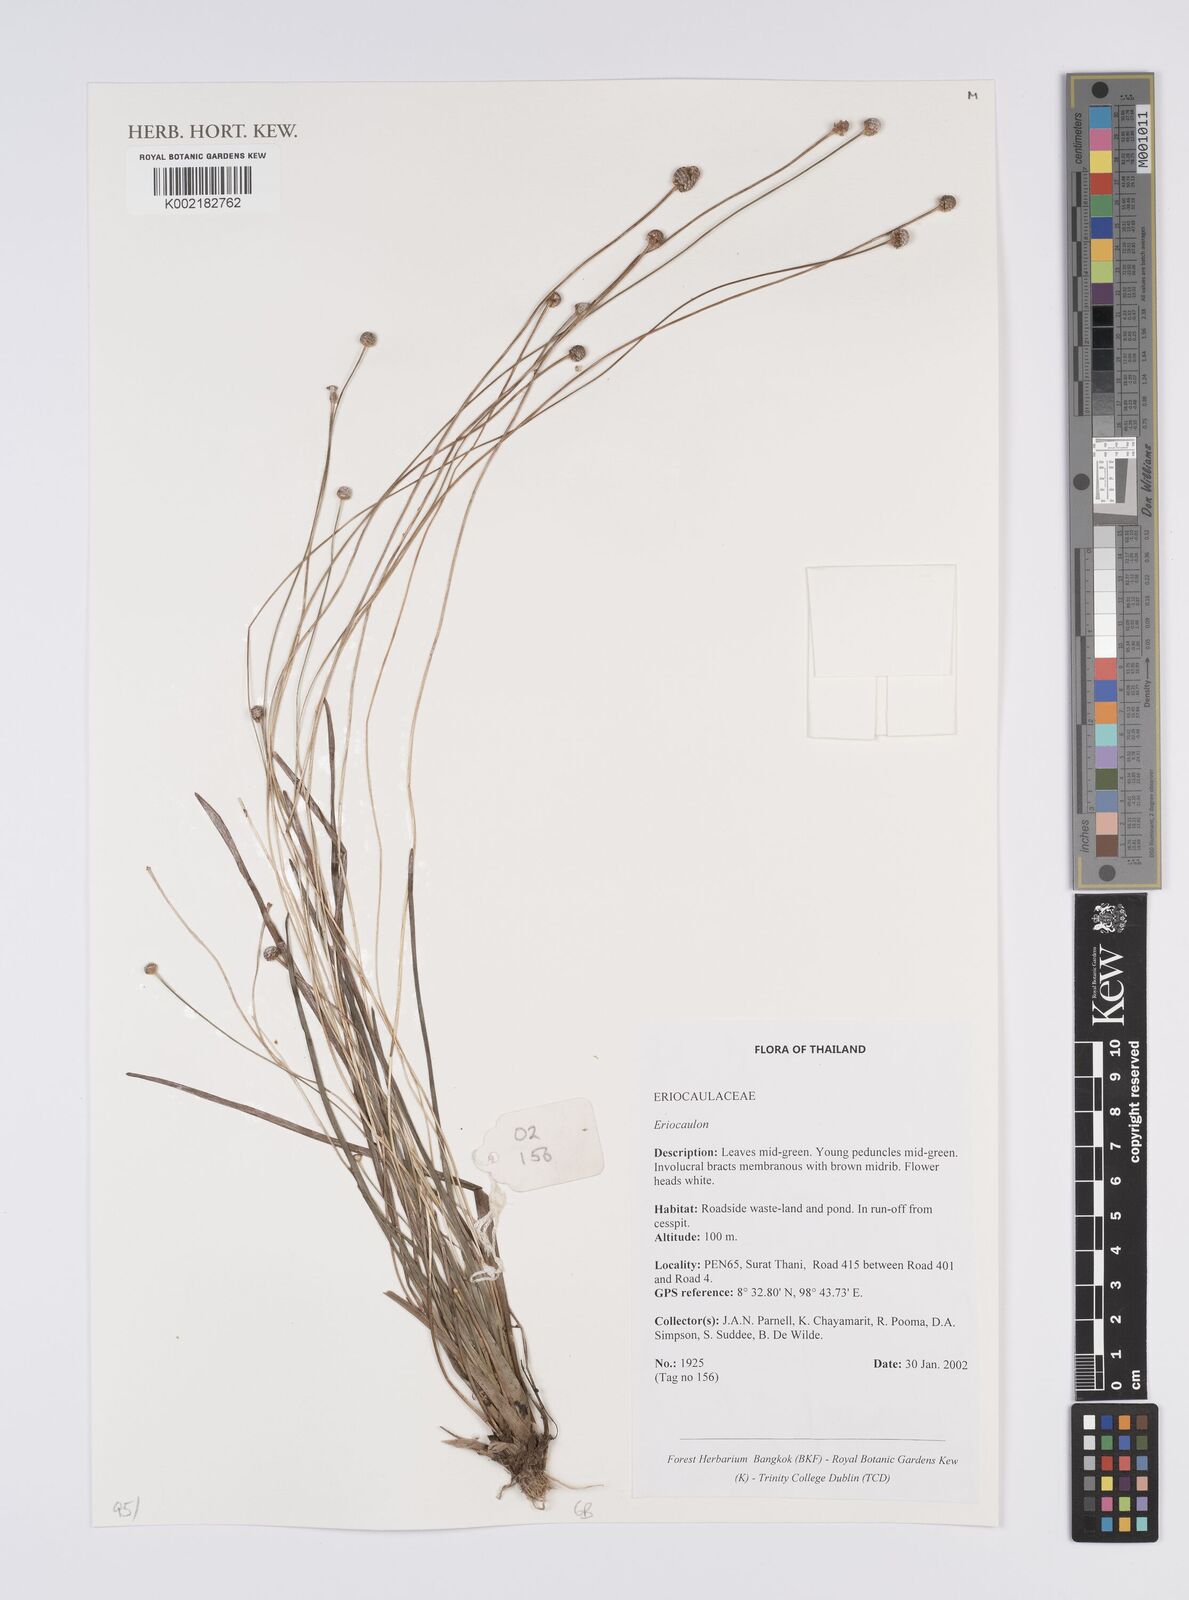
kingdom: Plantae
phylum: Tracheophyta
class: Liliopsida
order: Poales
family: Eriocaulaceae
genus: Eriocaulon
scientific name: Eriocaulon
